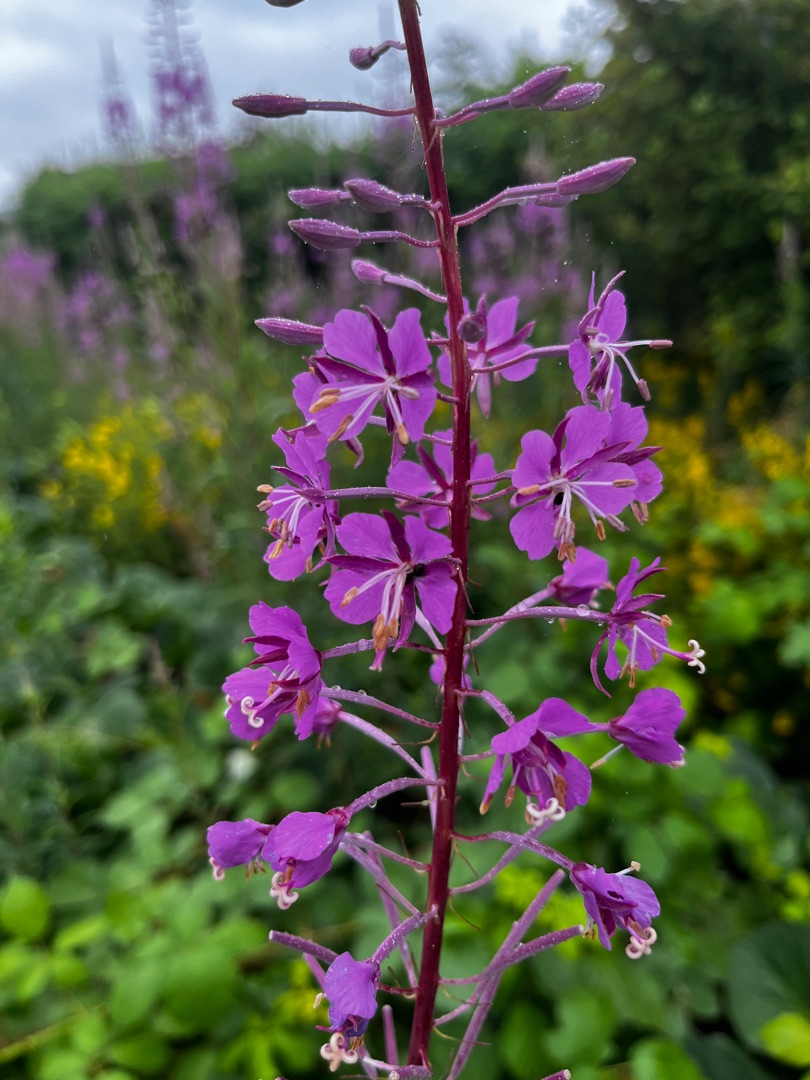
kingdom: Plantae
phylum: Tracheophyta
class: Magnoliopsida
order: Myrtales
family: Onagraceae
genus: Chamaenerion
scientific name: Chamaenerion angustifolium
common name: Gederams
